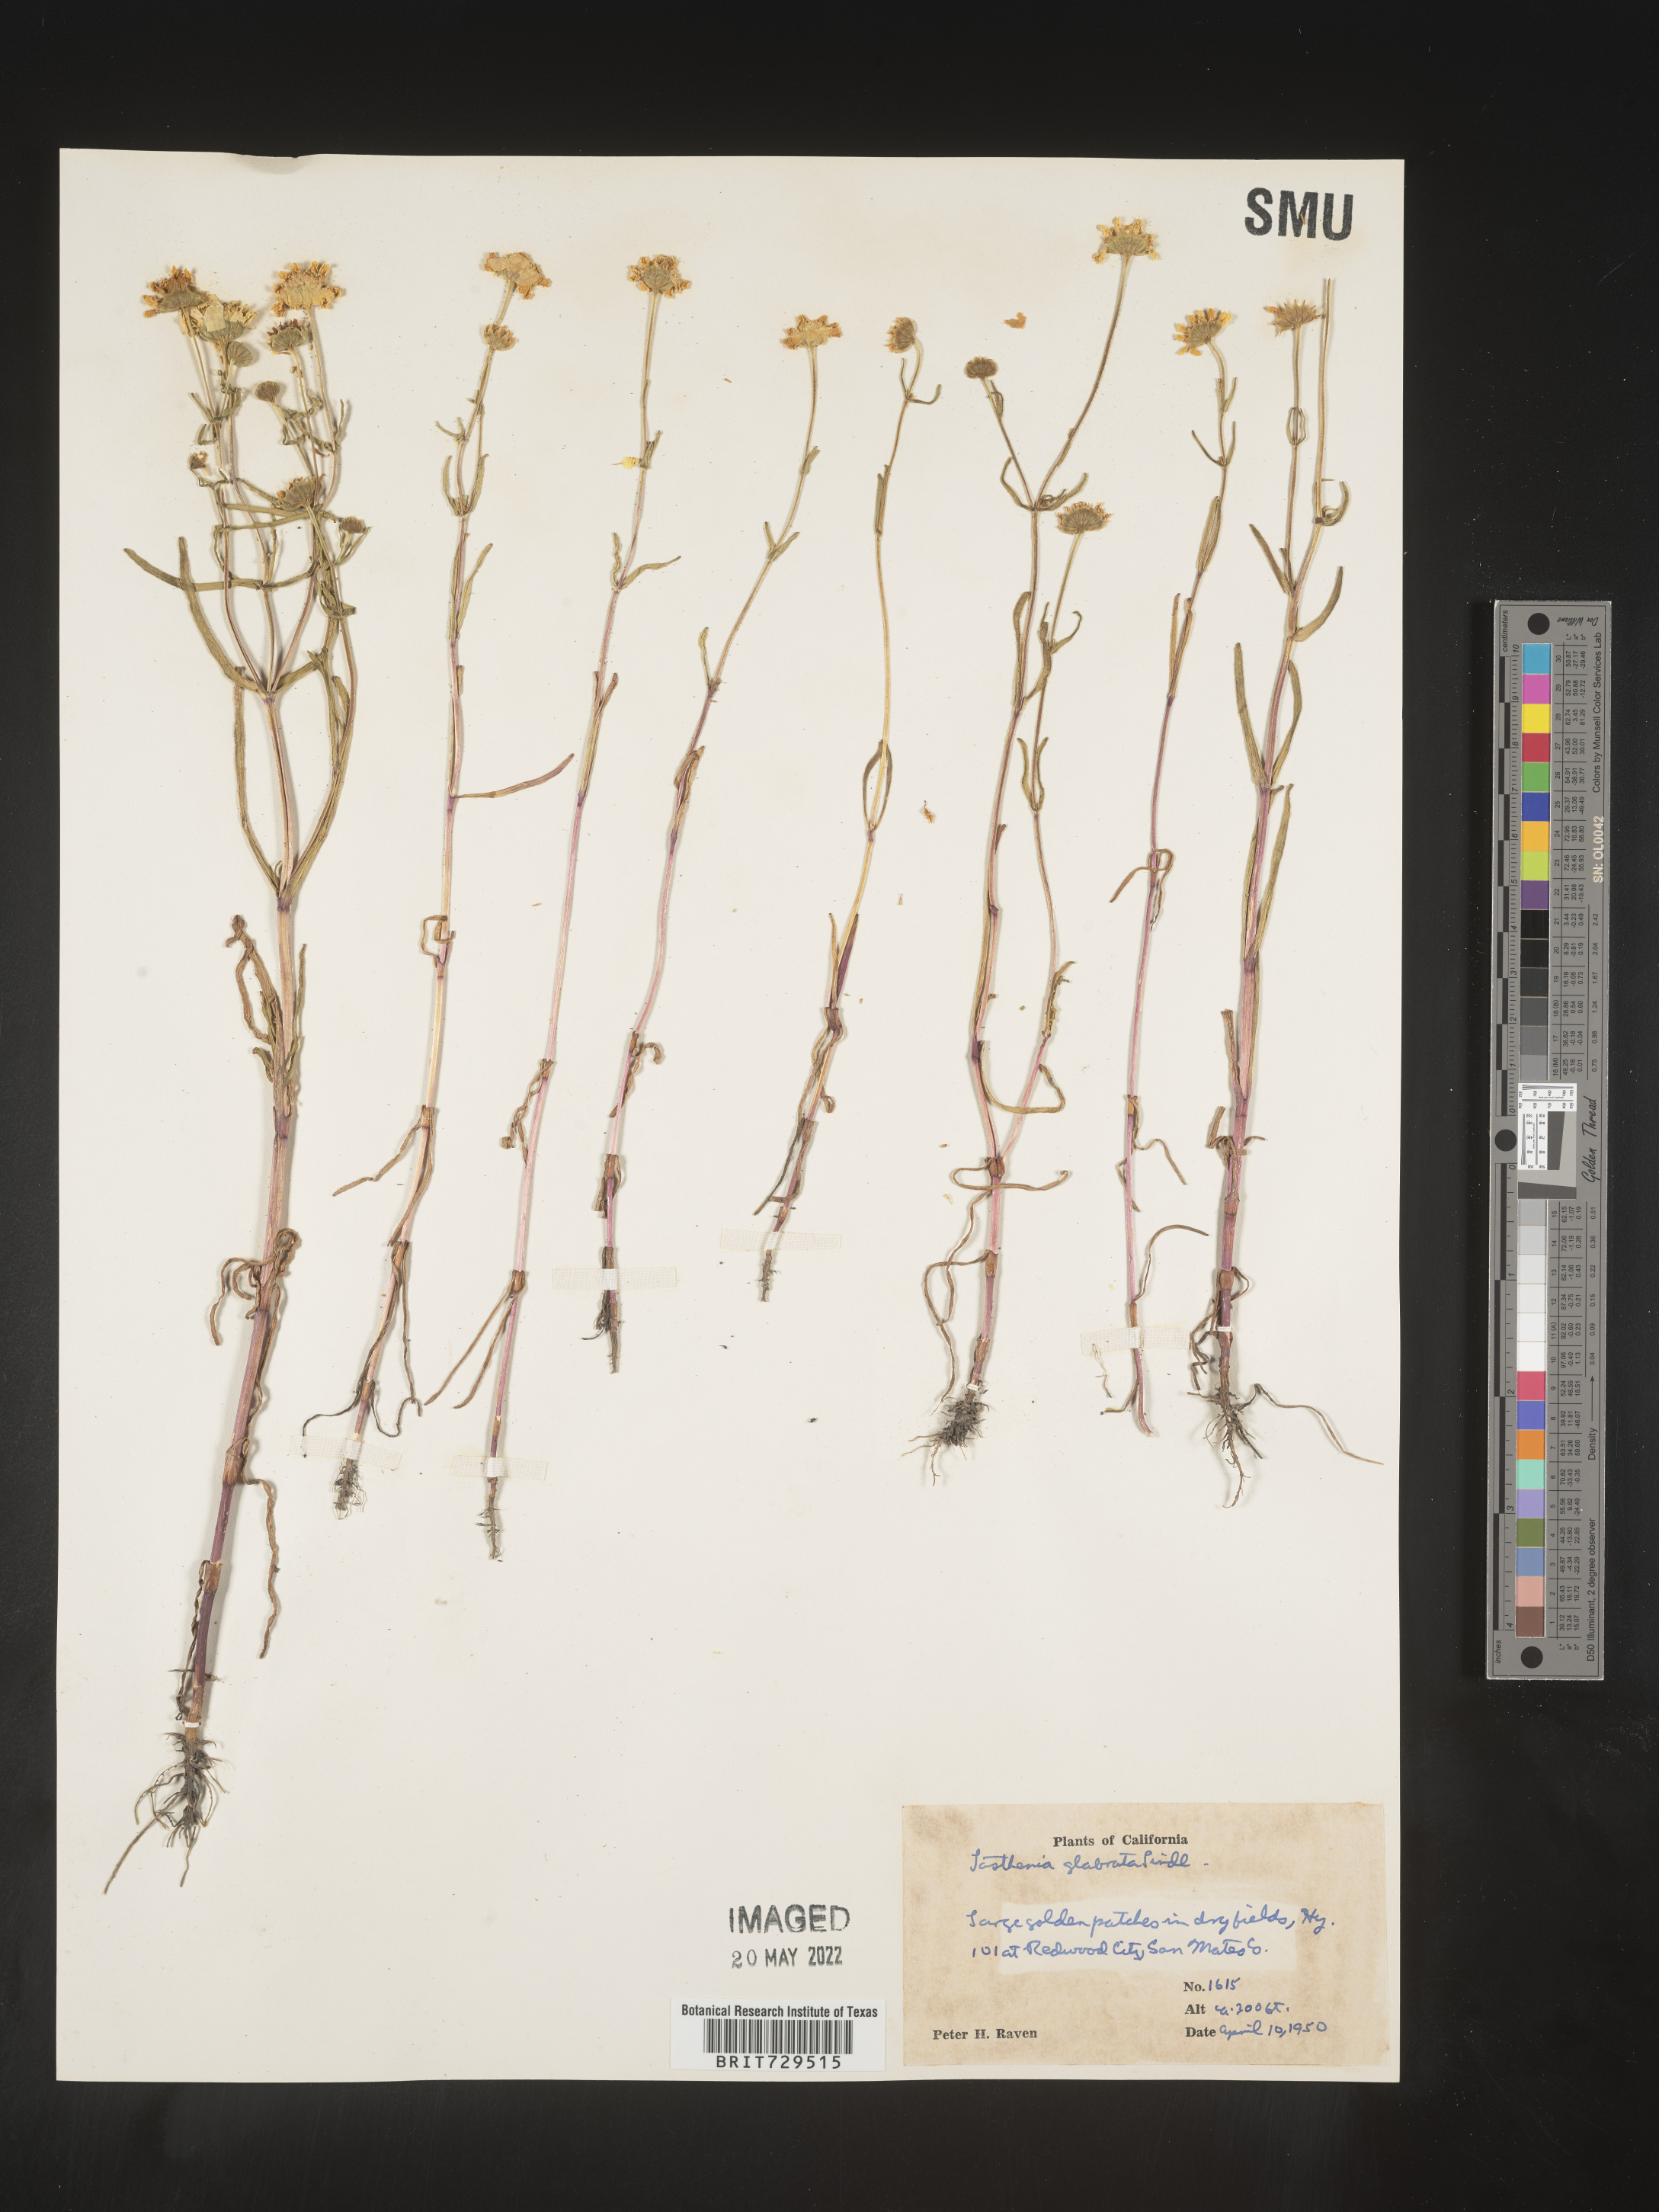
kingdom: Plantae
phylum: Tracheophyta
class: Magnoliopsida
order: Asterales
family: Asteraceae
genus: Lasthenia
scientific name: Lasthenia
